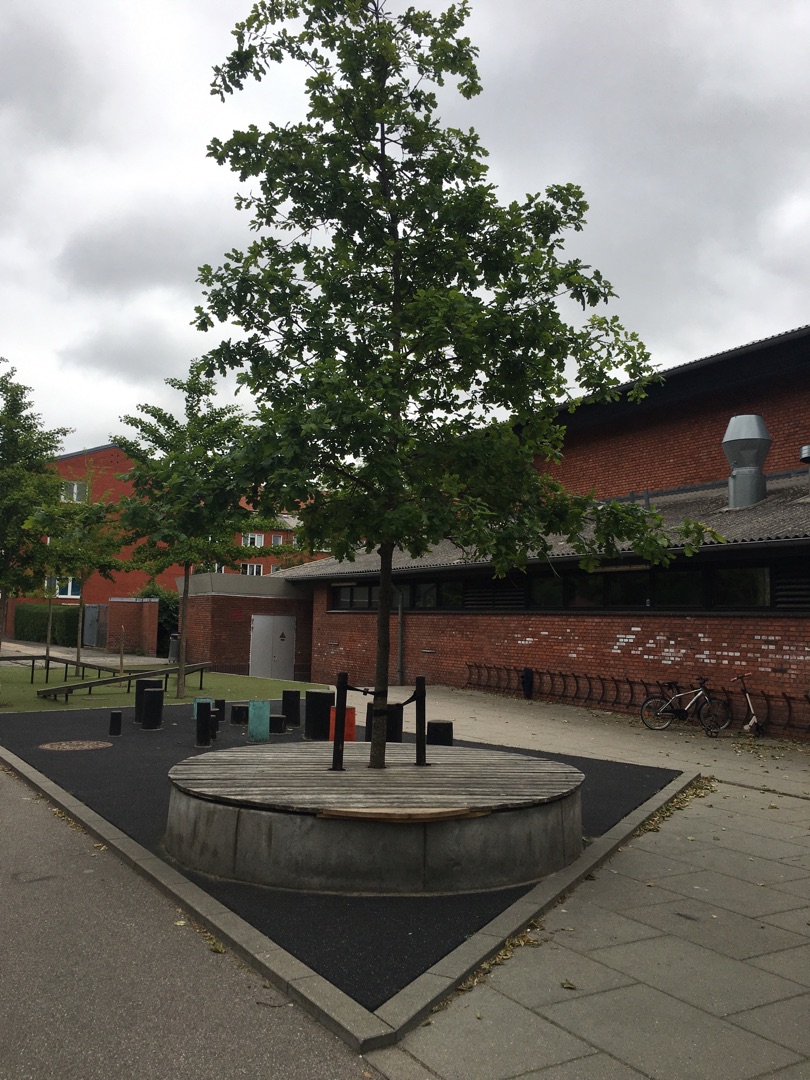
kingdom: Plantae
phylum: Tracheophyta
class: Magnoliopsida
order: Fagales
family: Fagaceae
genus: Quercus
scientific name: Quercus robur
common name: Stilk-eg/almindelig eg
